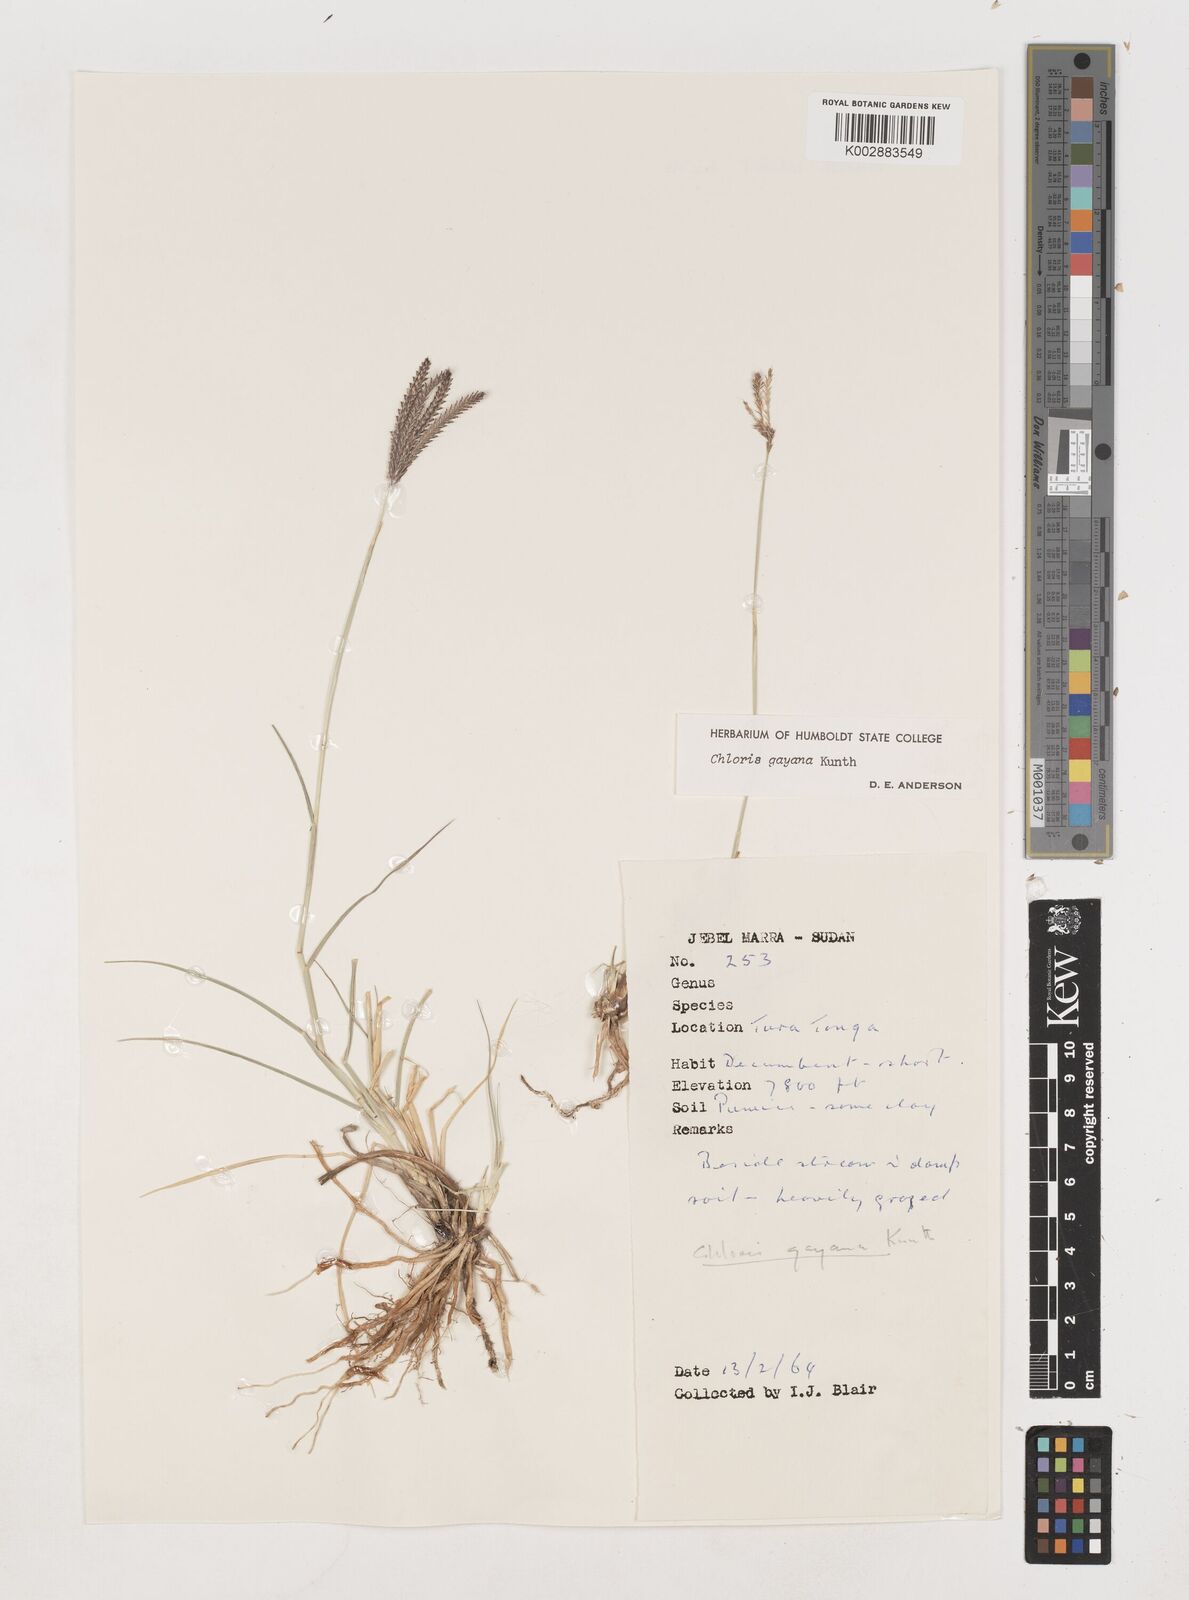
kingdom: Plantae
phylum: Tracheophyta
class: Liliopsida
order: Poales
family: Poaceae
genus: Chloris
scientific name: Chloris gayana
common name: Rhodes grass
